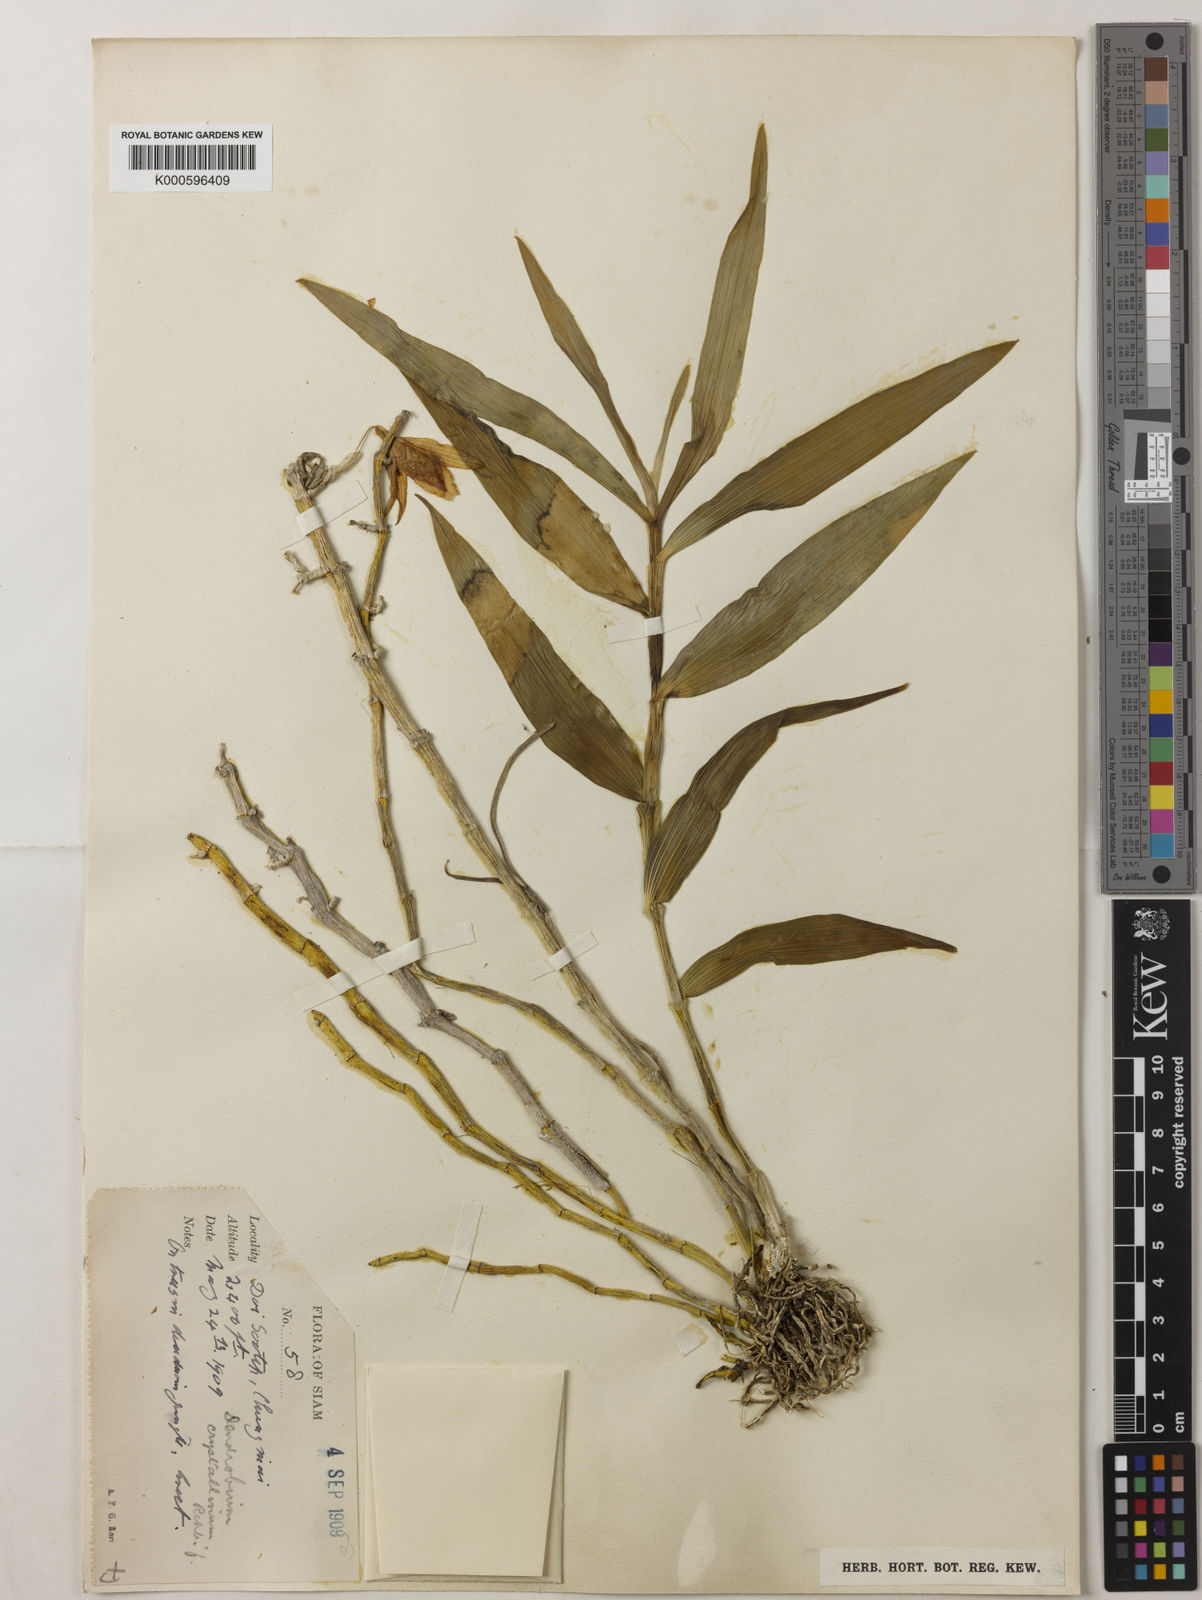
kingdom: Plantae
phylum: Tracheophyta
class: Liliopsida
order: Asparagales
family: Orchidaceae
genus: Dendrobium
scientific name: Dendrobium crystallinum
